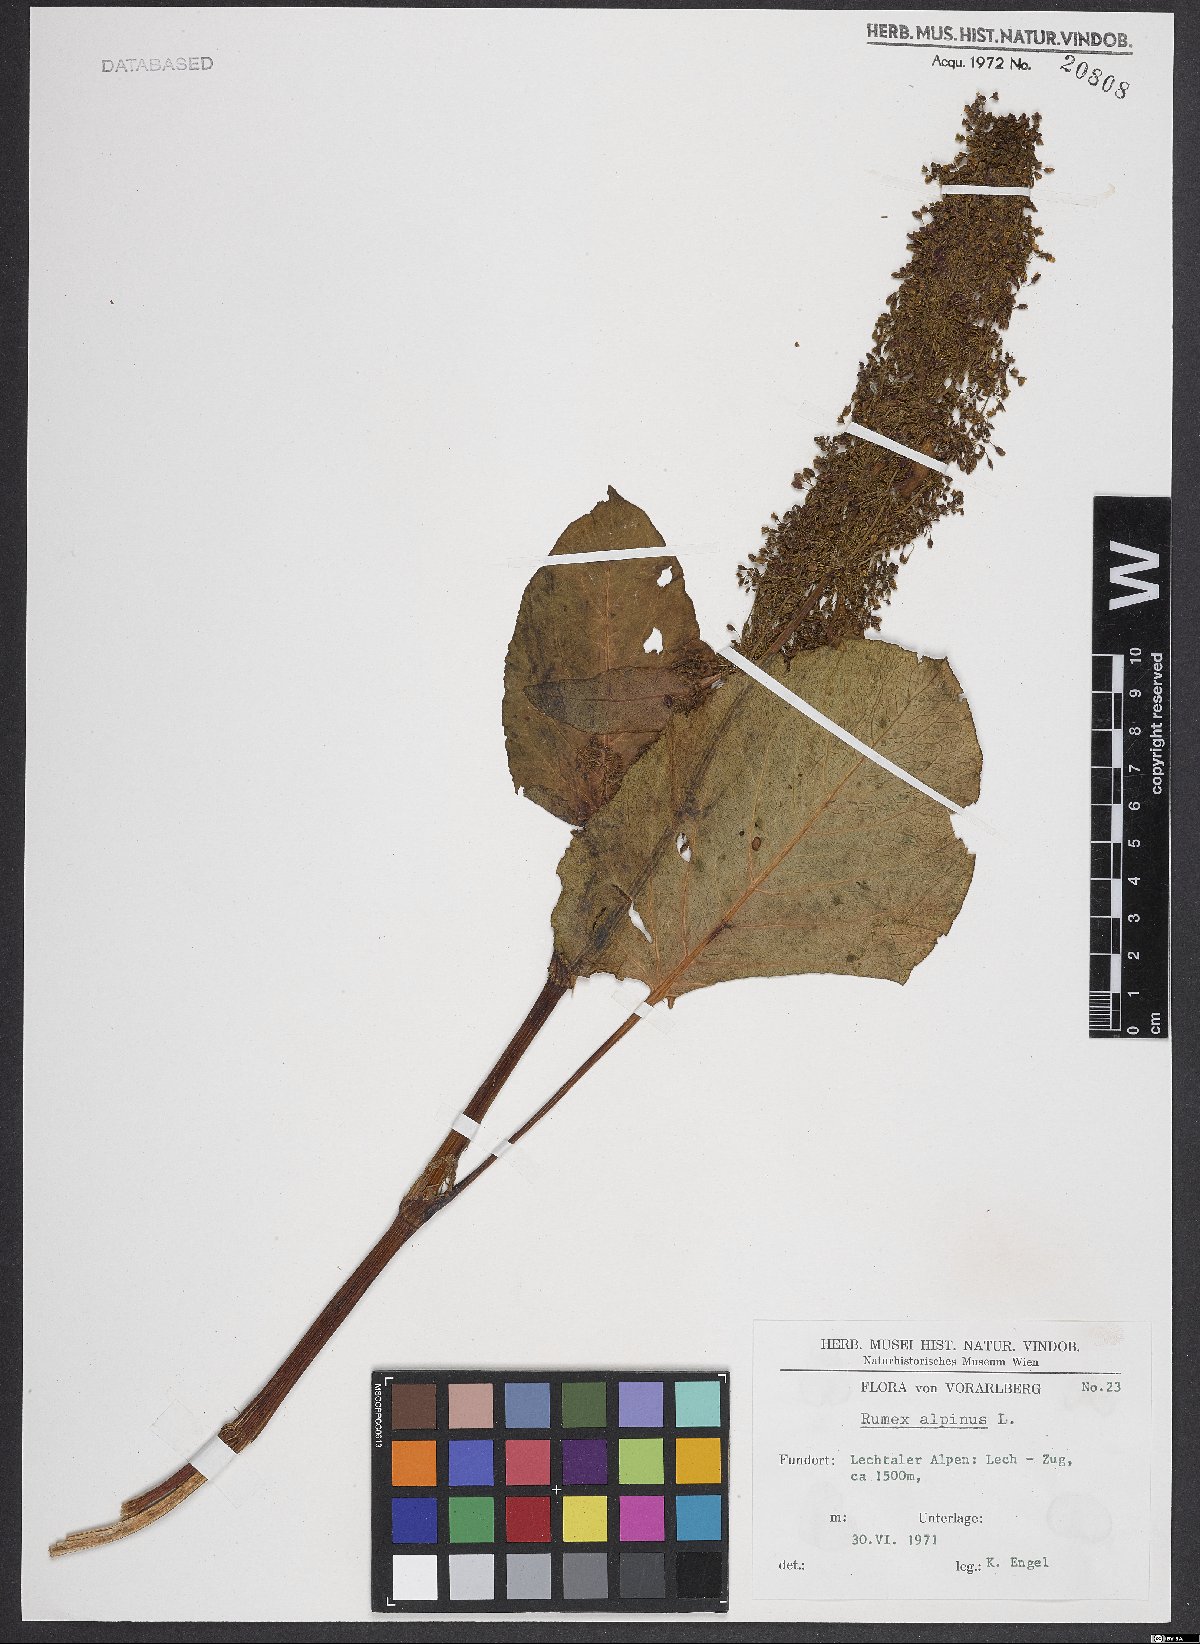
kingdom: Plantae
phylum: Tracheophyta
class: Magnoliopsida
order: Caryophyllales
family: Polygonaceae
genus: Rumex
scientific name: Rumex alpinus
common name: Alpine dock
